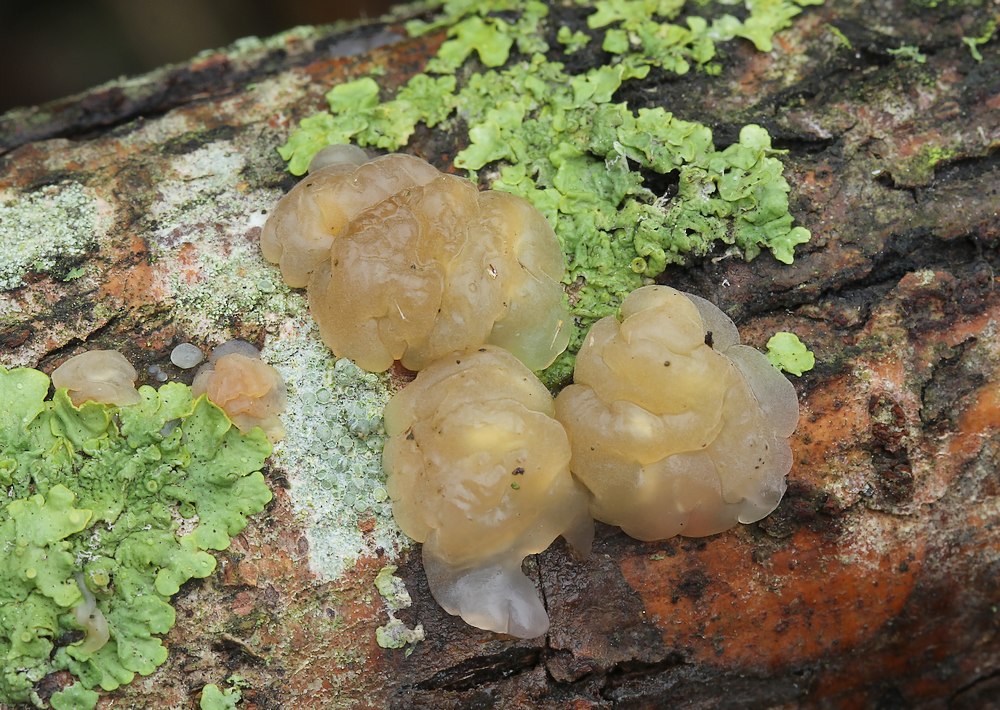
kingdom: Fungi
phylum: Basidiomycota
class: Agaricomycetes
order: Auriculariales
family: Hyaloriaceae
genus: Myxarium
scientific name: Myxarium
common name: bævretop
